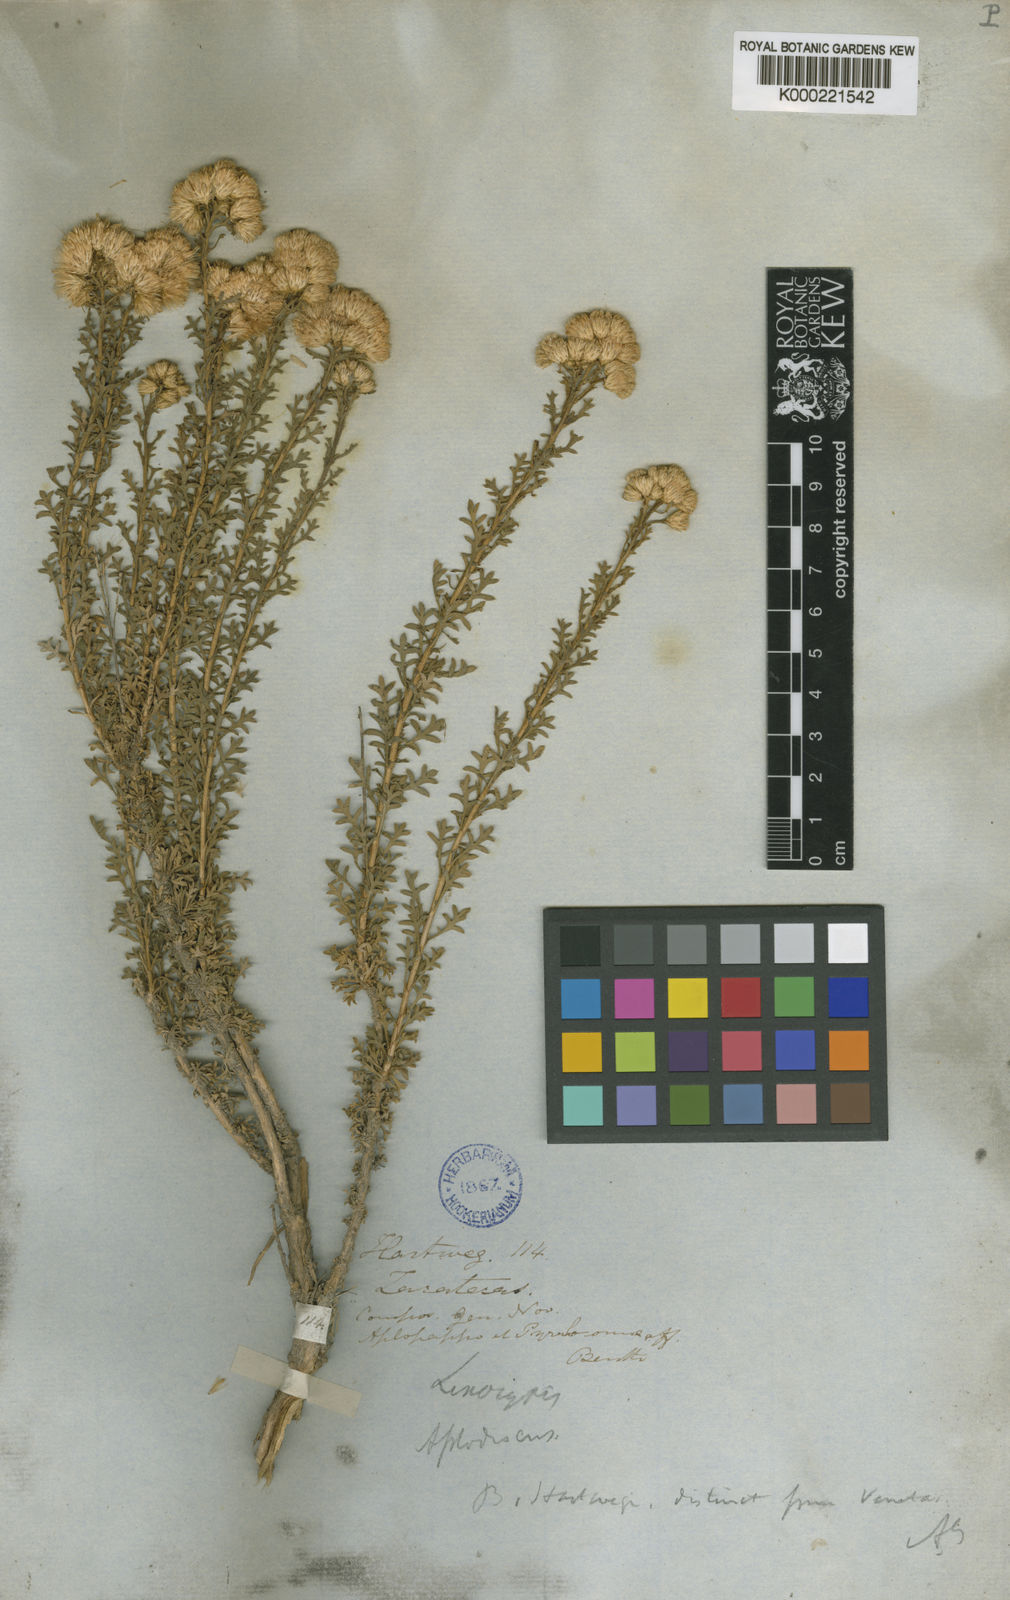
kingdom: Plantae
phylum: Tracheophyta
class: Magnoliopsida
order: Asterales
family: Asteraceae
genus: Isocoma
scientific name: Isocoma hartwegii
